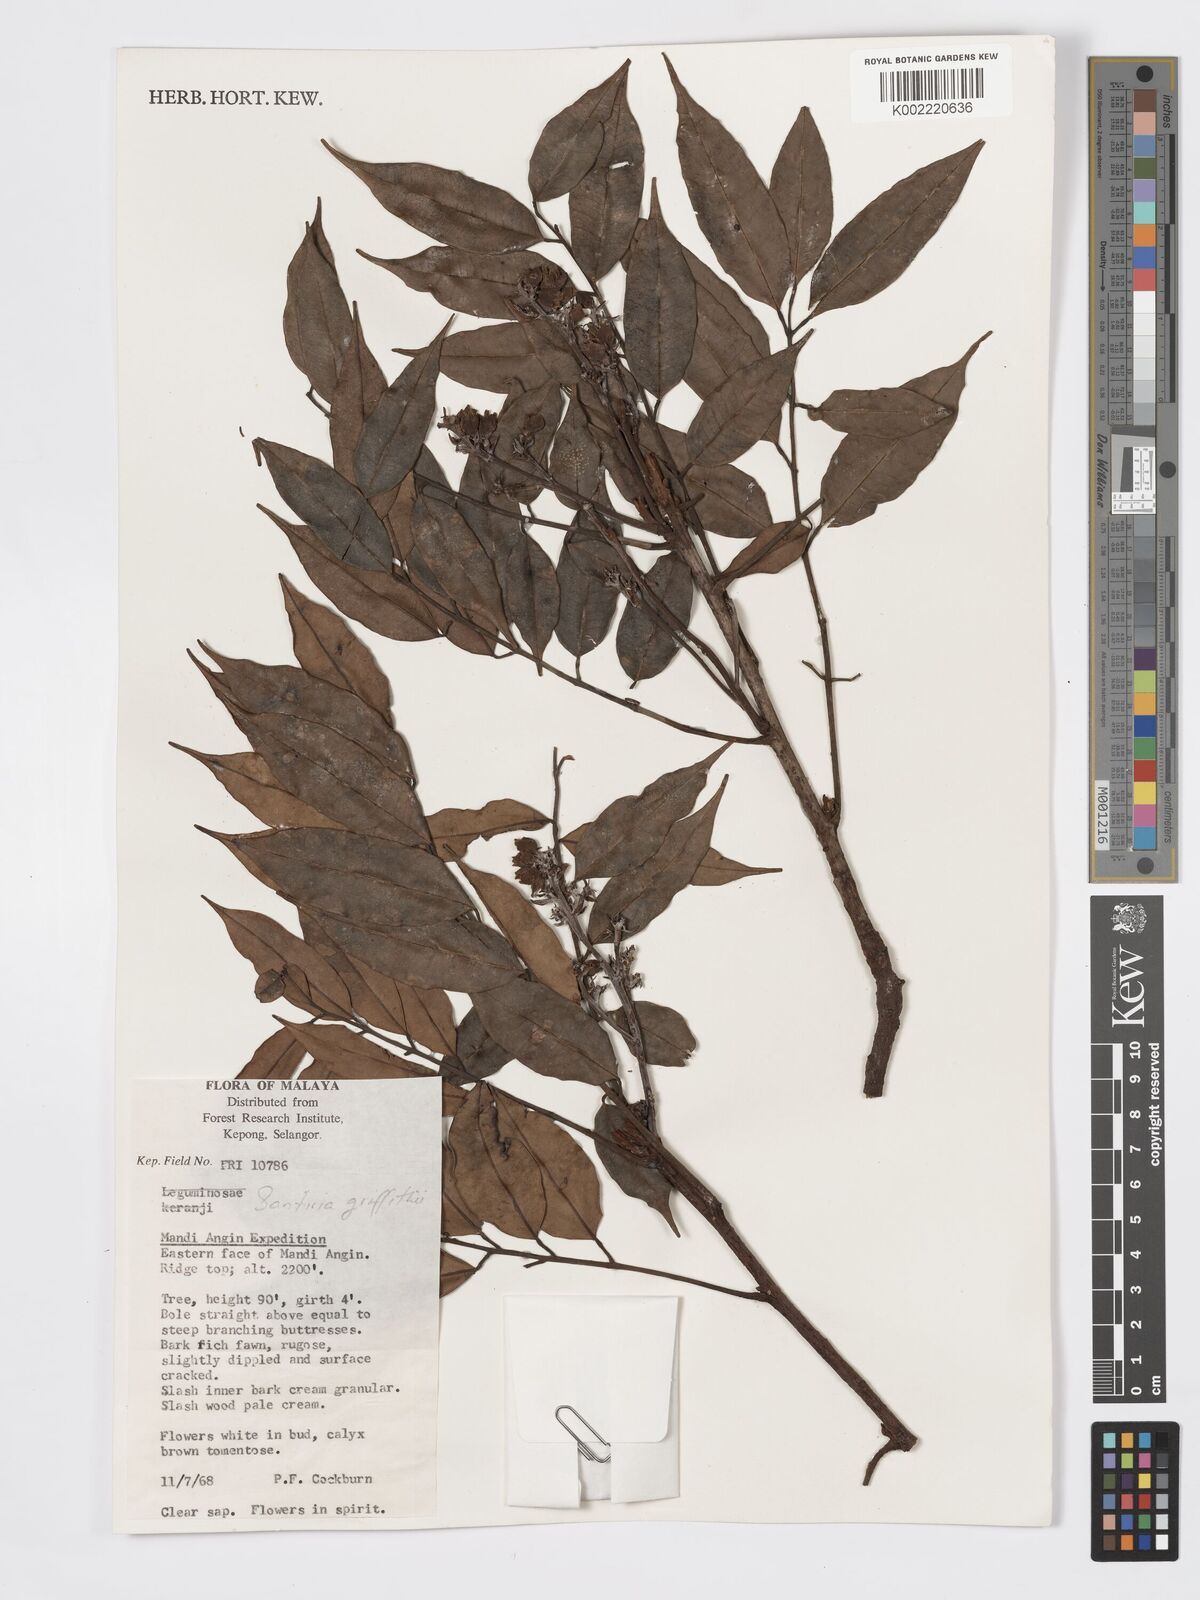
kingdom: Plantae
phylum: Tracheophyta
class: Magnoliopsida
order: Sapindales
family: Burseraceae
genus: Santiria
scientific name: Santiria griffithii
